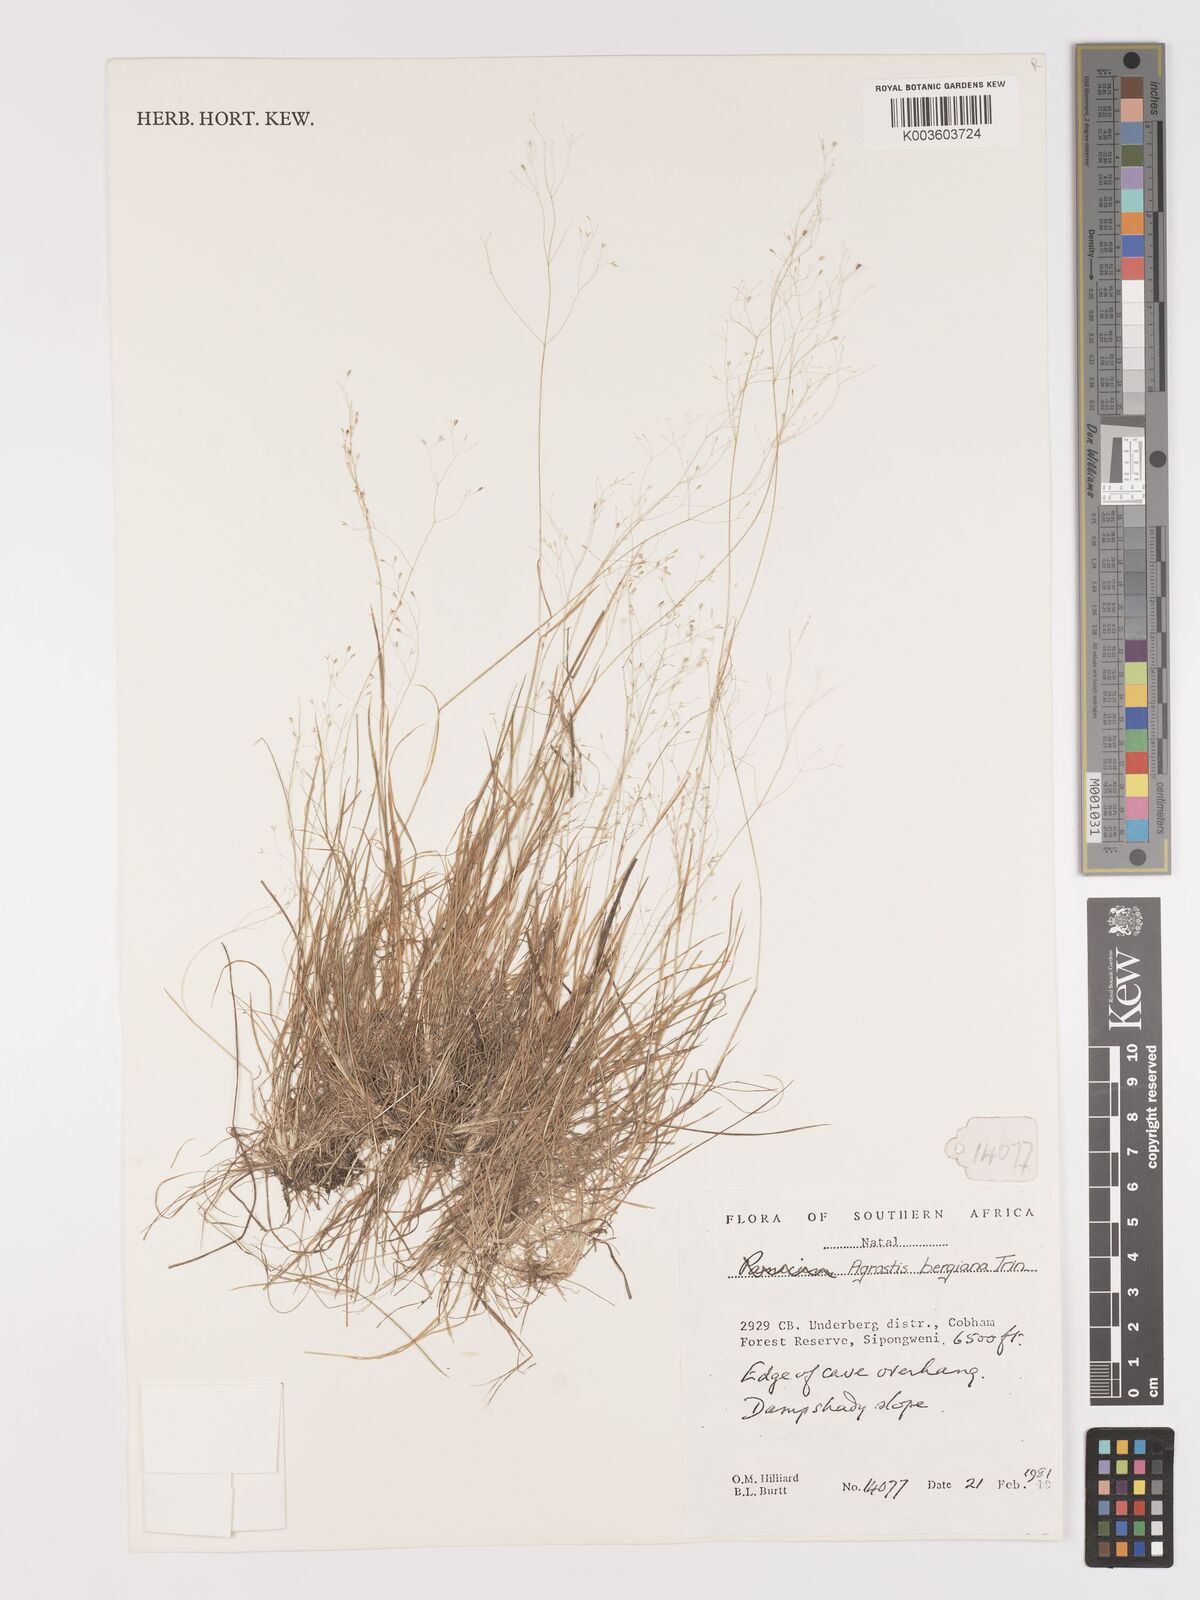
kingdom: Plantae
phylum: Tracheophyta
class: Liliopsida
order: Poales
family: Poaceae
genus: Agrostis
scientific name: Agrostis bergiana
